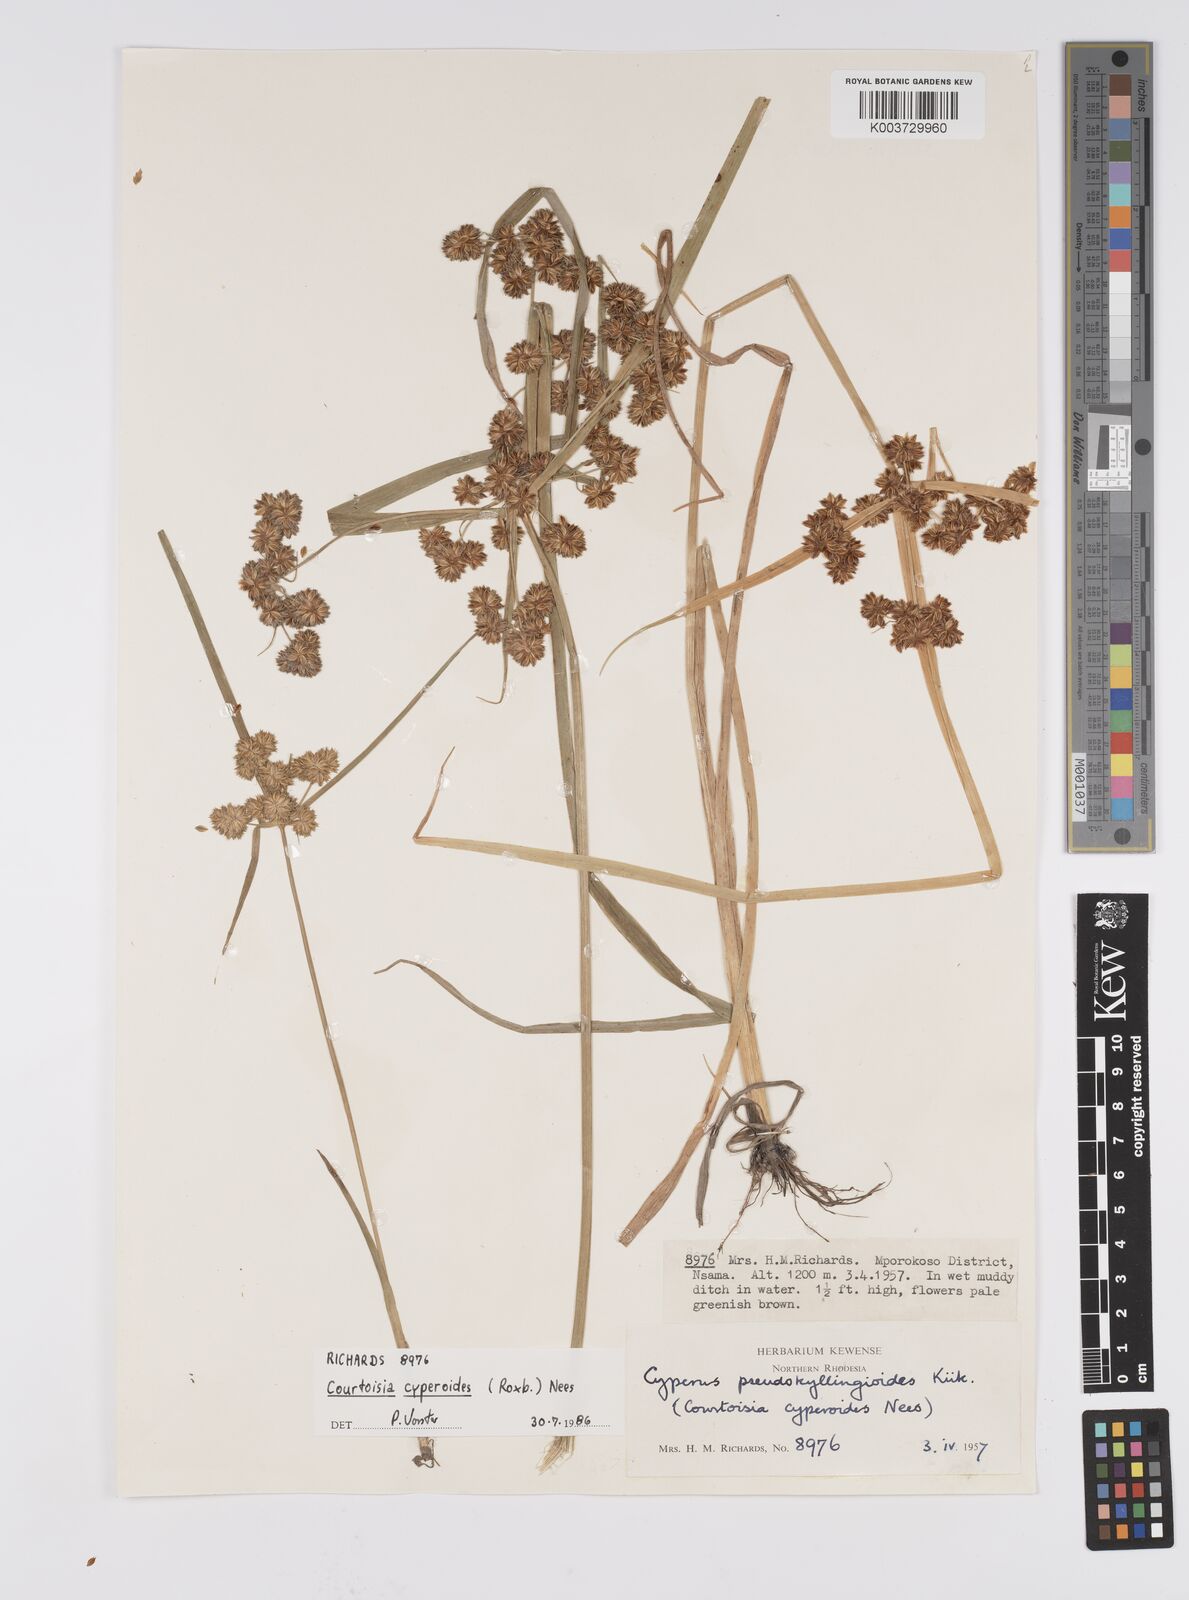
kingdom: Plantae
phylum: Tracheophyta
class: Liliopsida
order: Poales
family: Cyperaceae
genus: Cyperus
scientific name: Cyperus cyperoides
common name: Pacific island flat sedge
